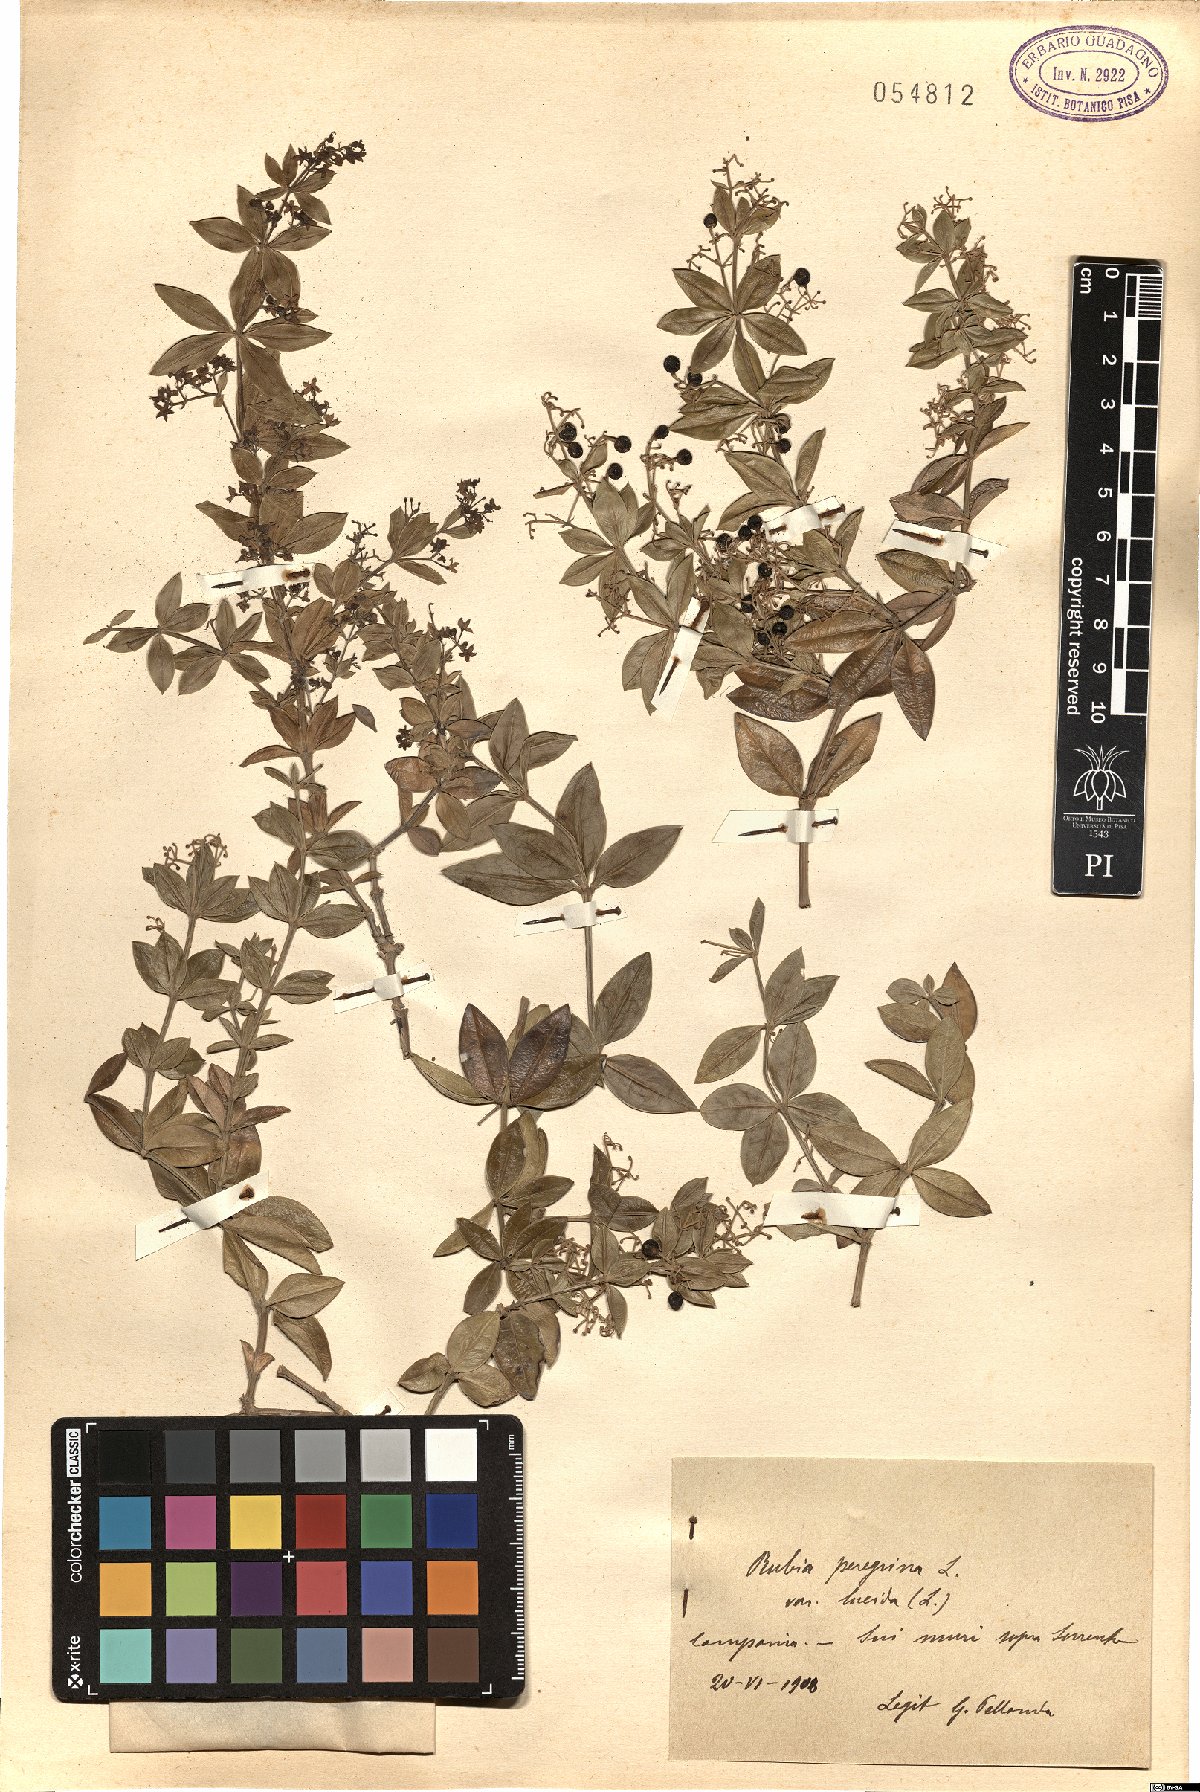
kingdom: Plantae
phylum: Tracheophyta
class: Magnoliopsida
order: Gentianales
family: Rubiaceae
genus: Rubia
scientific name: Rubia peregrina
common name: Wild madder
